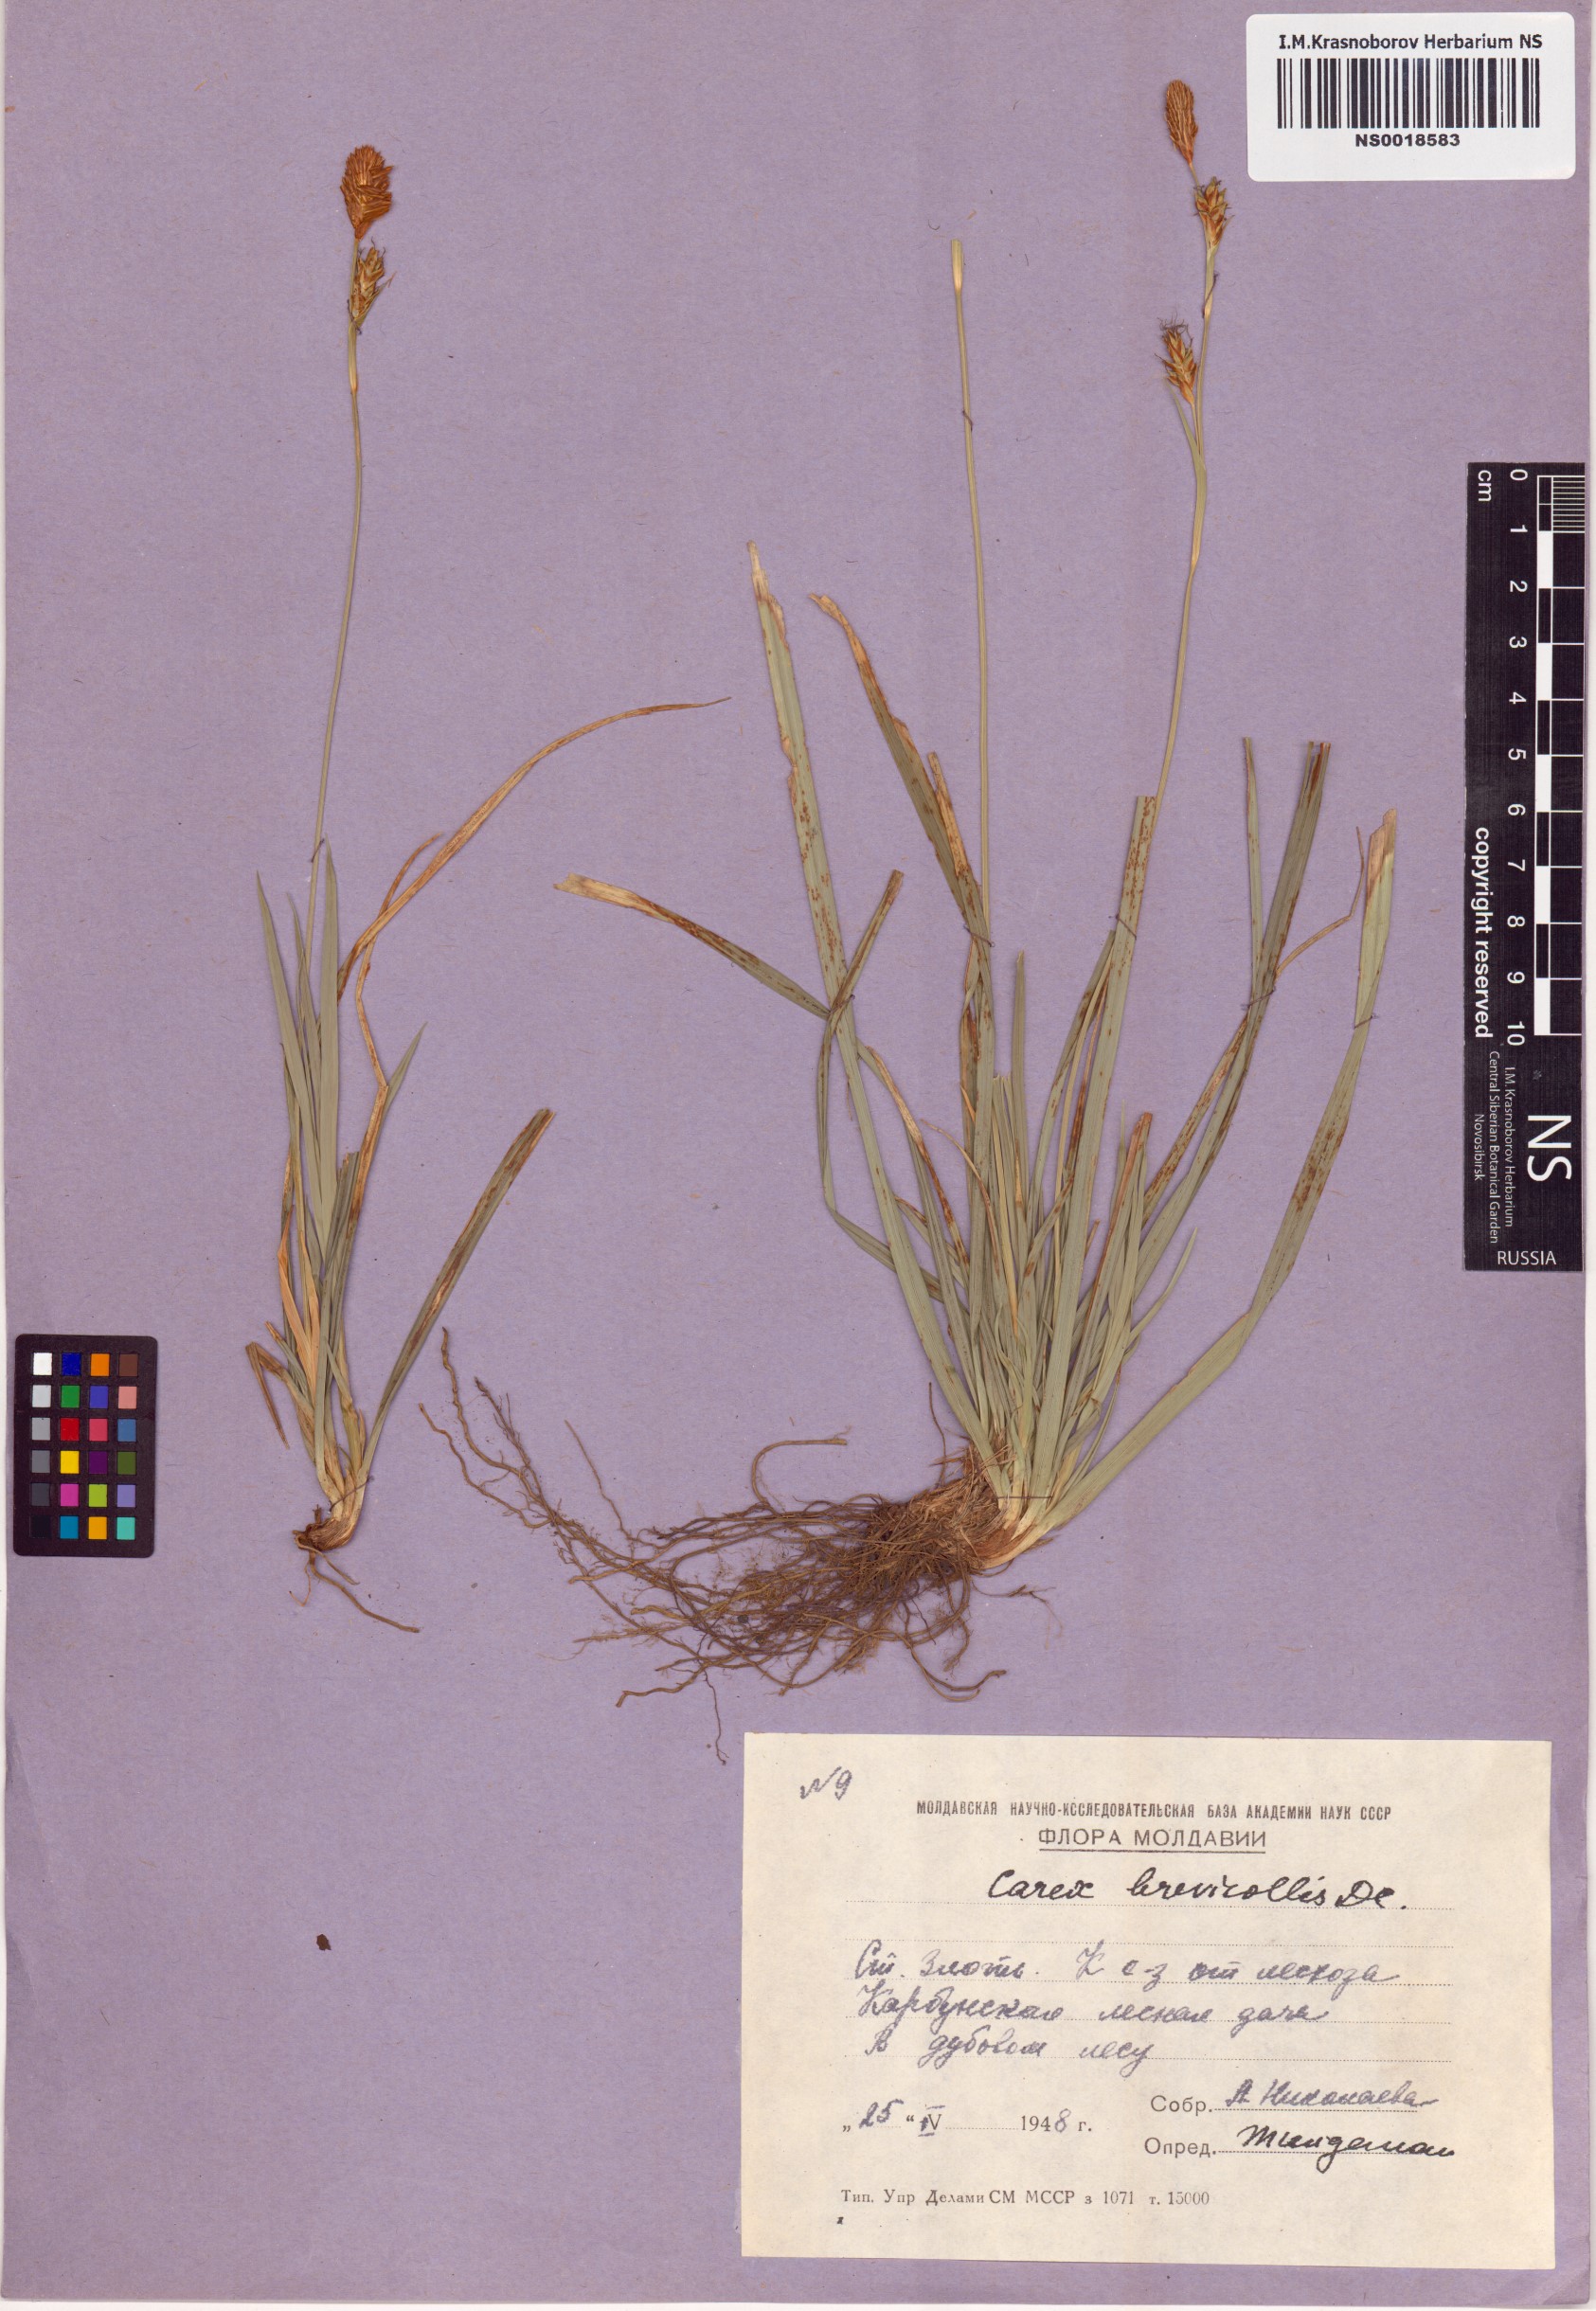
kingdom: Plantae
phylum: Tracheophyta
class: Liliopsida
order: Poales
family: Cyperaceae
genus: Carex
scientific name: Carex brevicollis
